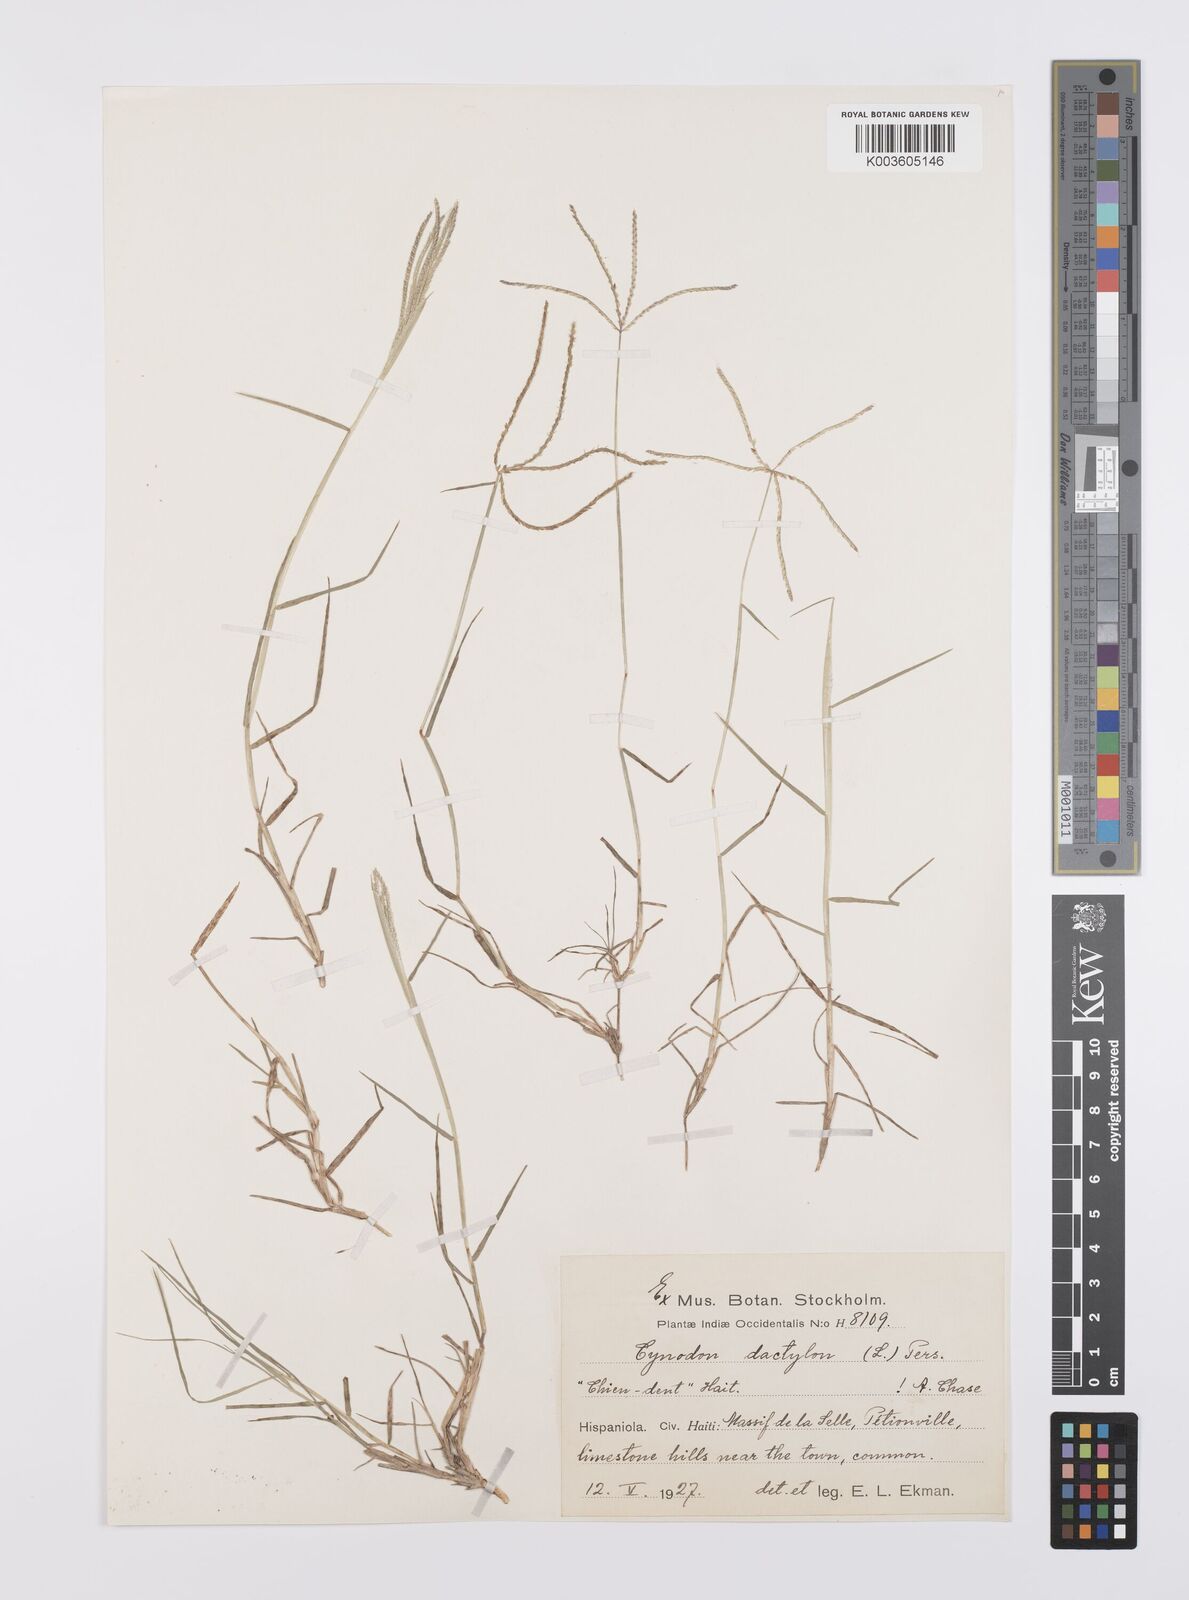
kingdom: Plantae
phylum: Tracheophyta
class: Liliopsida
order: Poales
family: Poaceae
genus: Cynodon
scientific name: Cynodon dactylon
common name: Bermuda grass
